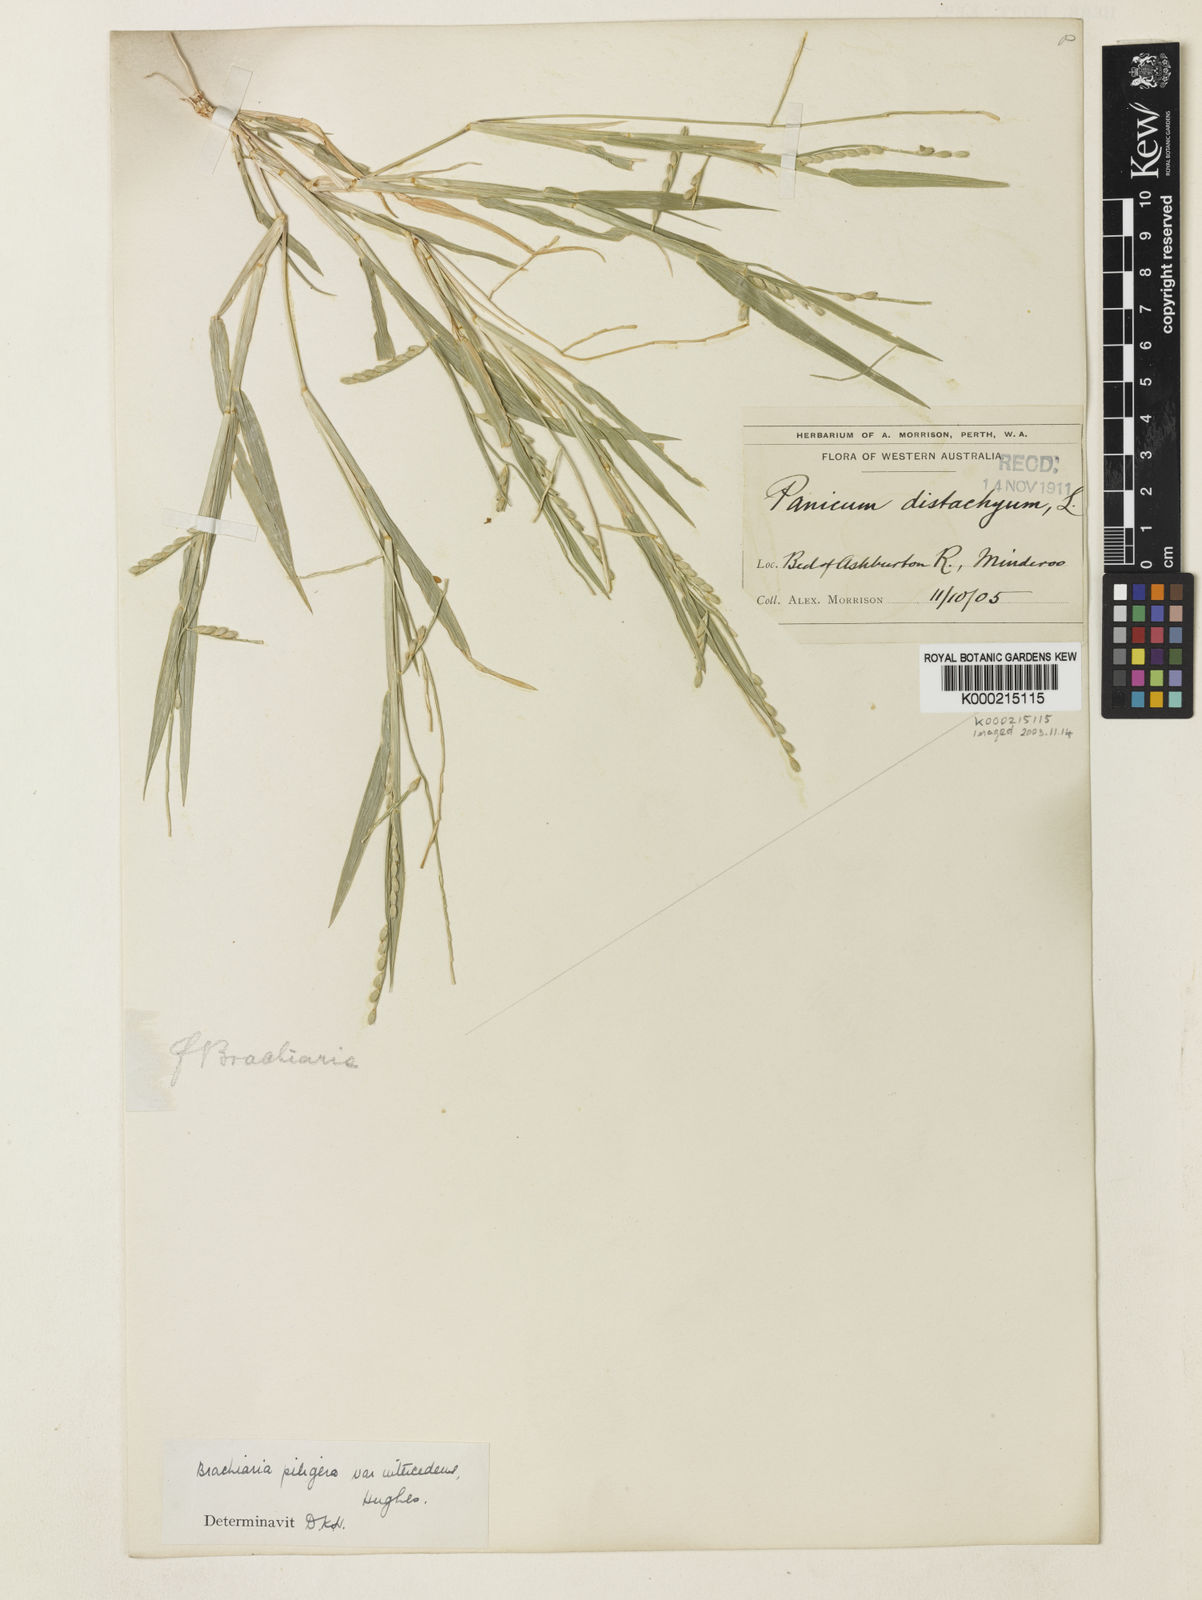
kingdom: Plantae
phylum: Tracheophyta
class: Liliopsida
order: Poales
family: Poaceae
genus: Urochloa
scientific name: Urochloa piligera
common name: Wattle signalgrass
